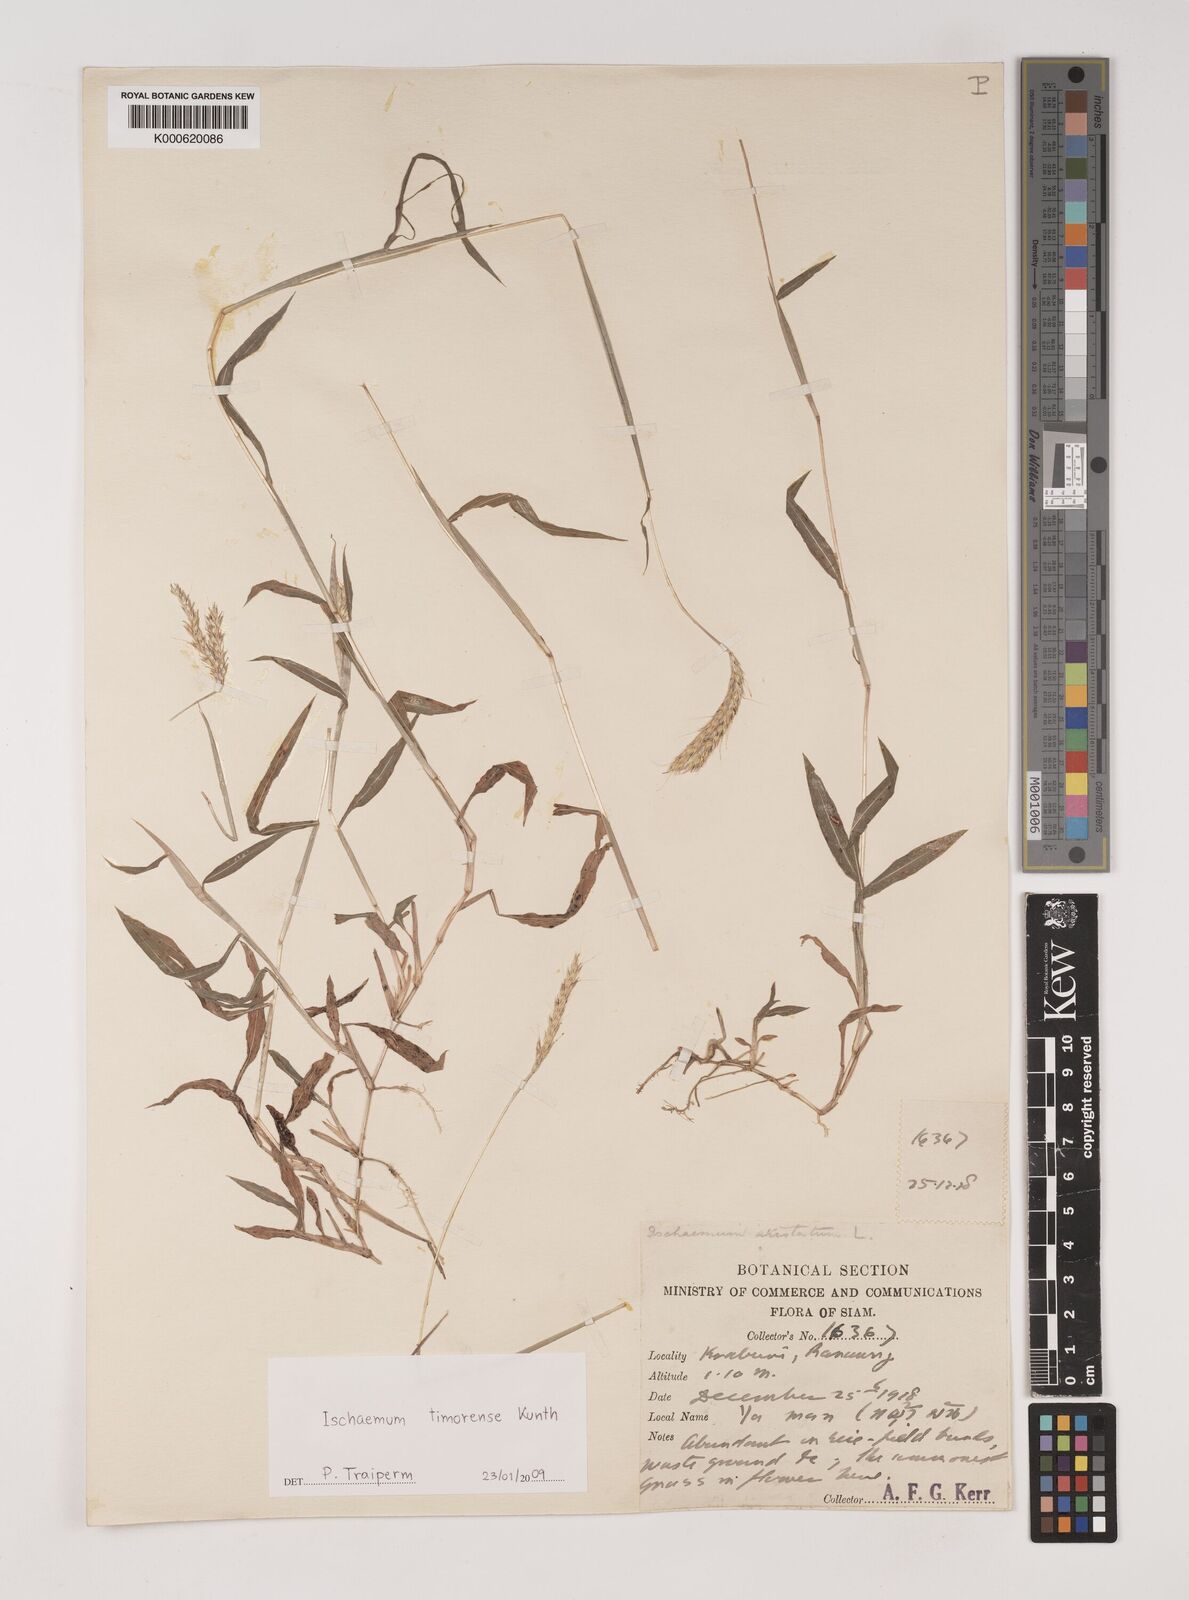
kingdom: Plantae
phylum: Tracheophyta
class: Liliopsida
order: Poales
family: Poaceae
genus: Ischaemum
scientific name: Ischaemum timorense
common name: Stalkleaf murainagrass
